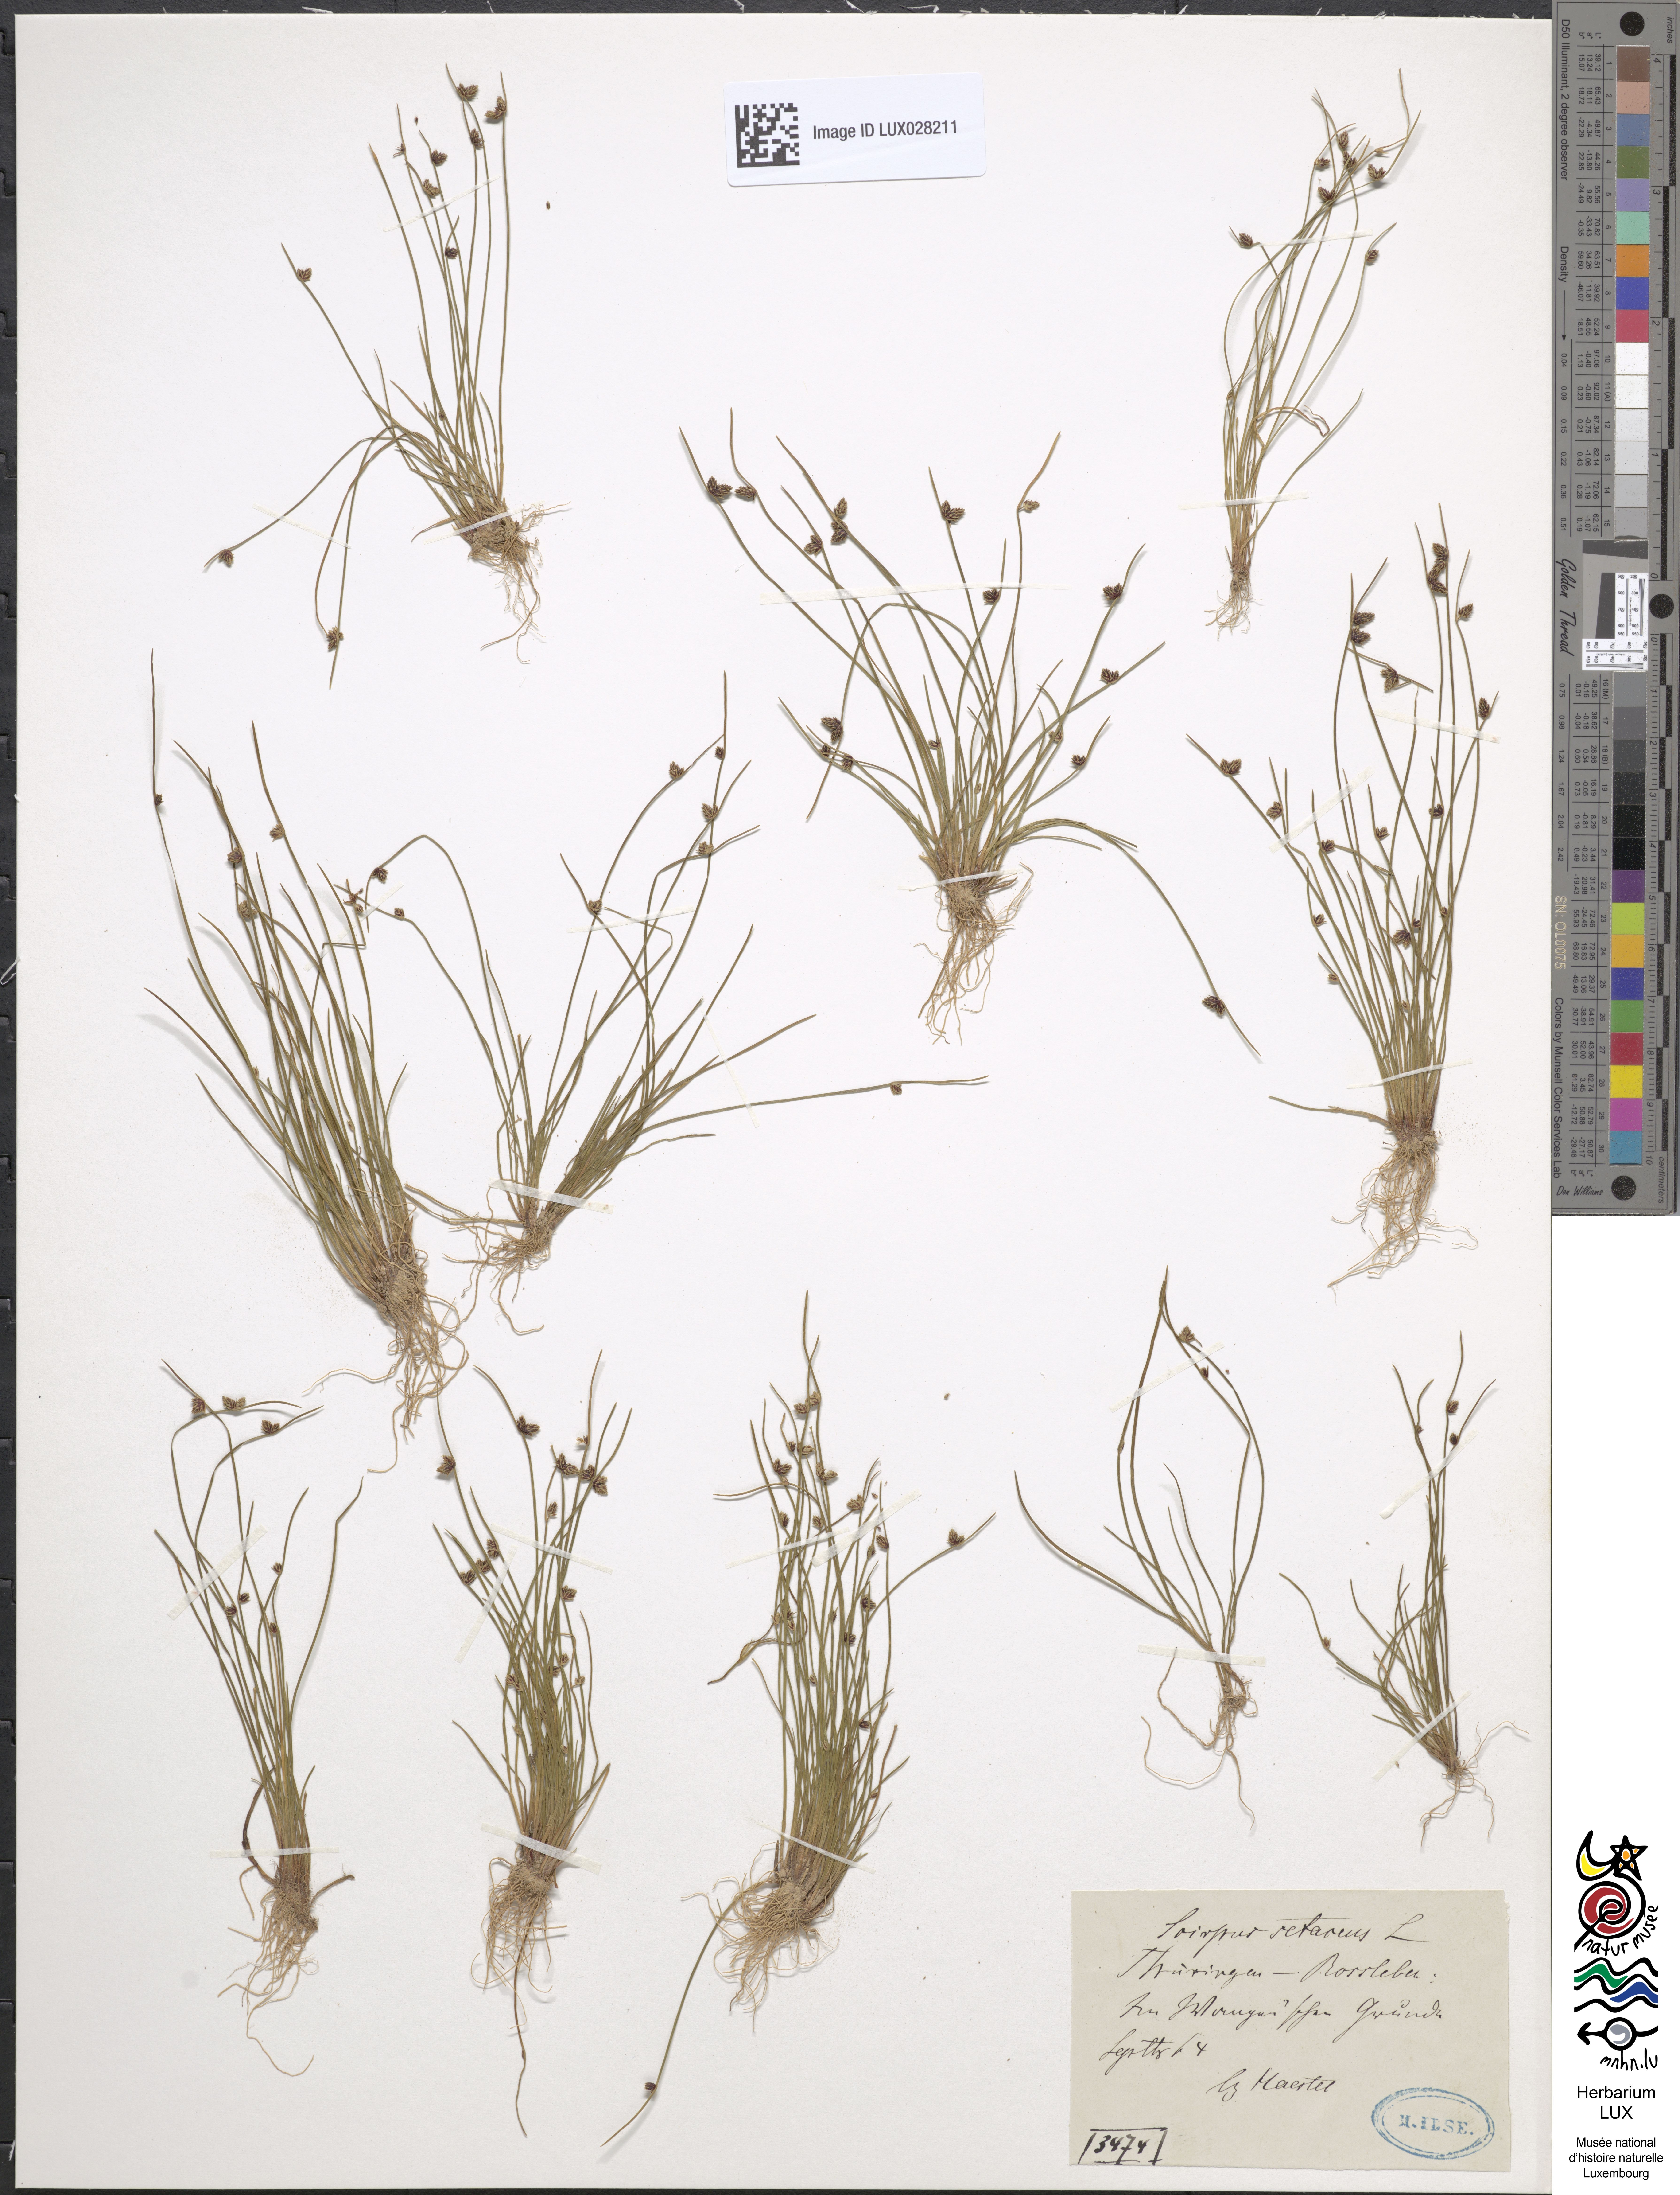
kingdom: Plantae
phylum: Tracheophyta
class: Liliopsida
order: Poales
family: Cyperaceae
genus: Isolepis
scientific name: Isolepis setacea
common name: Bristle club-rush
